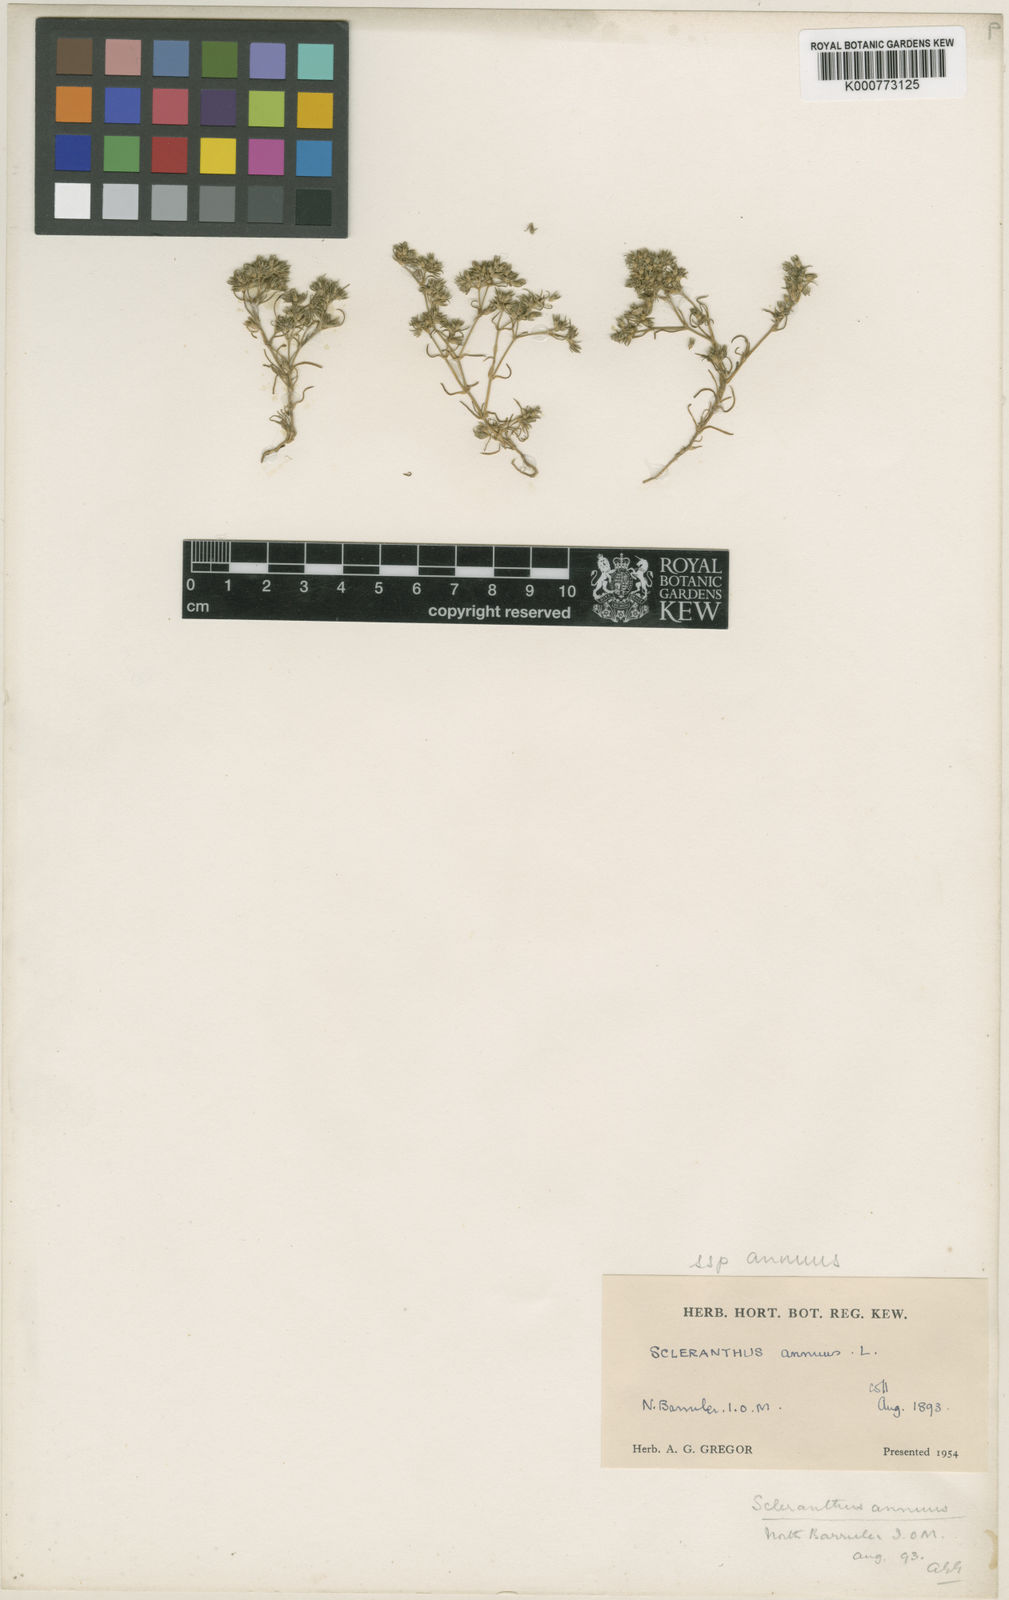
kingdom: Plantae
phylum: Tracheophyta
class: Magnoliopsida
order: Caryophyllales
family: Caryophyllaceae
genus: Scleranthus
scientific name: Scleranthus annuus
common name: Annual knawel
